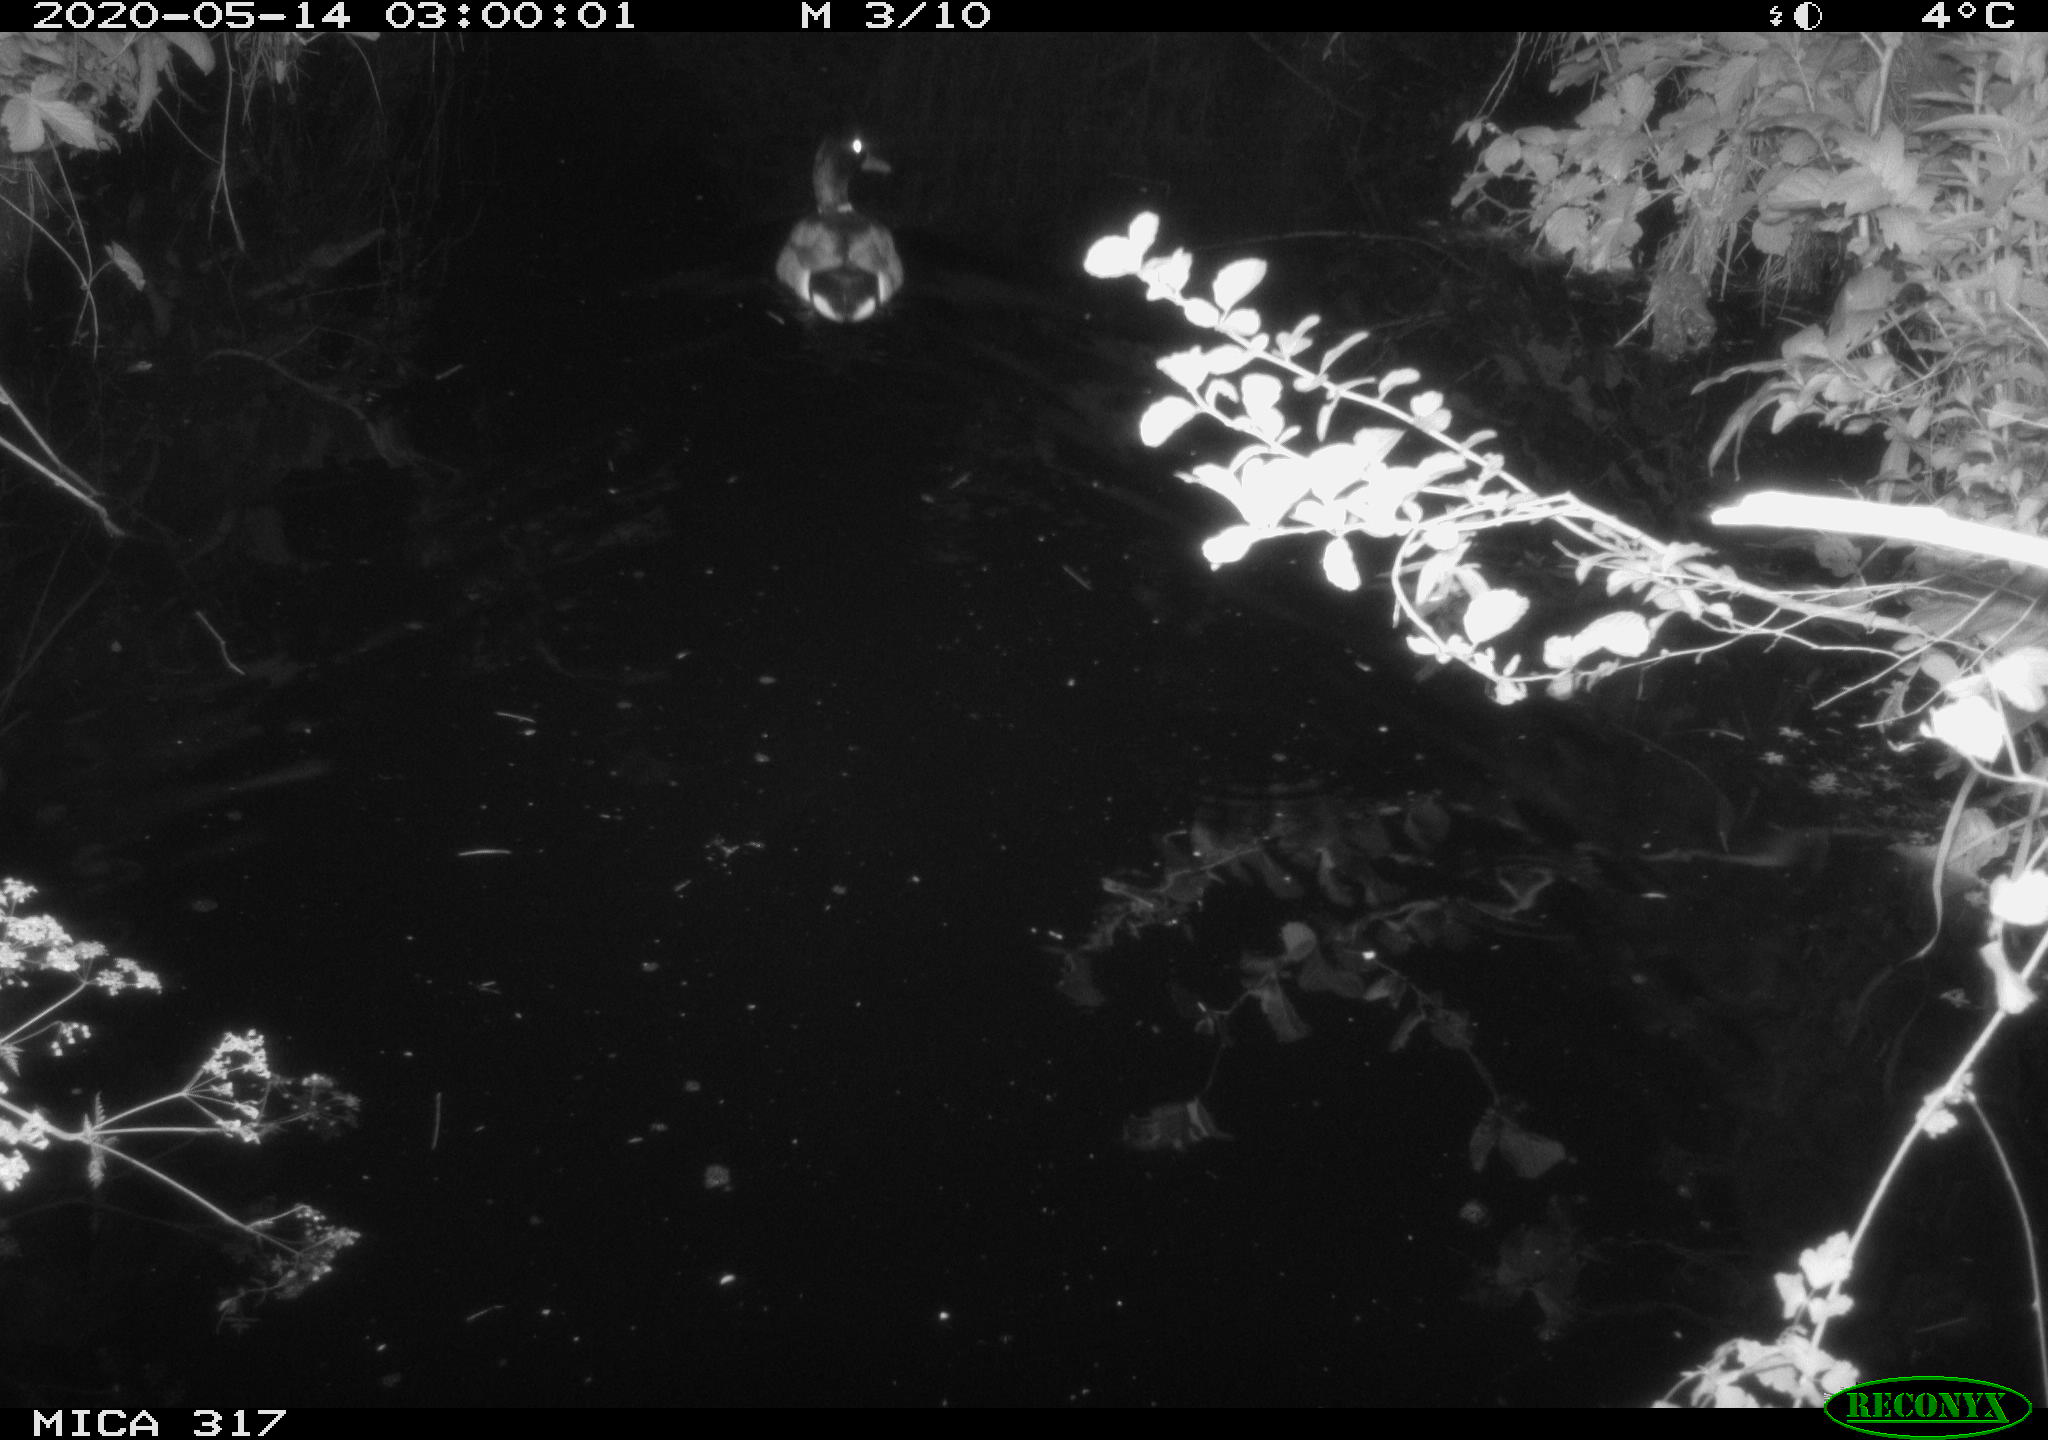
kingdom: Animalia
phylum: Chordata
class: Aves
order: Anseriformes
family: Anatidae
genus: Anas
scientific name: Anas platyrhynchos
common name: Mallard
